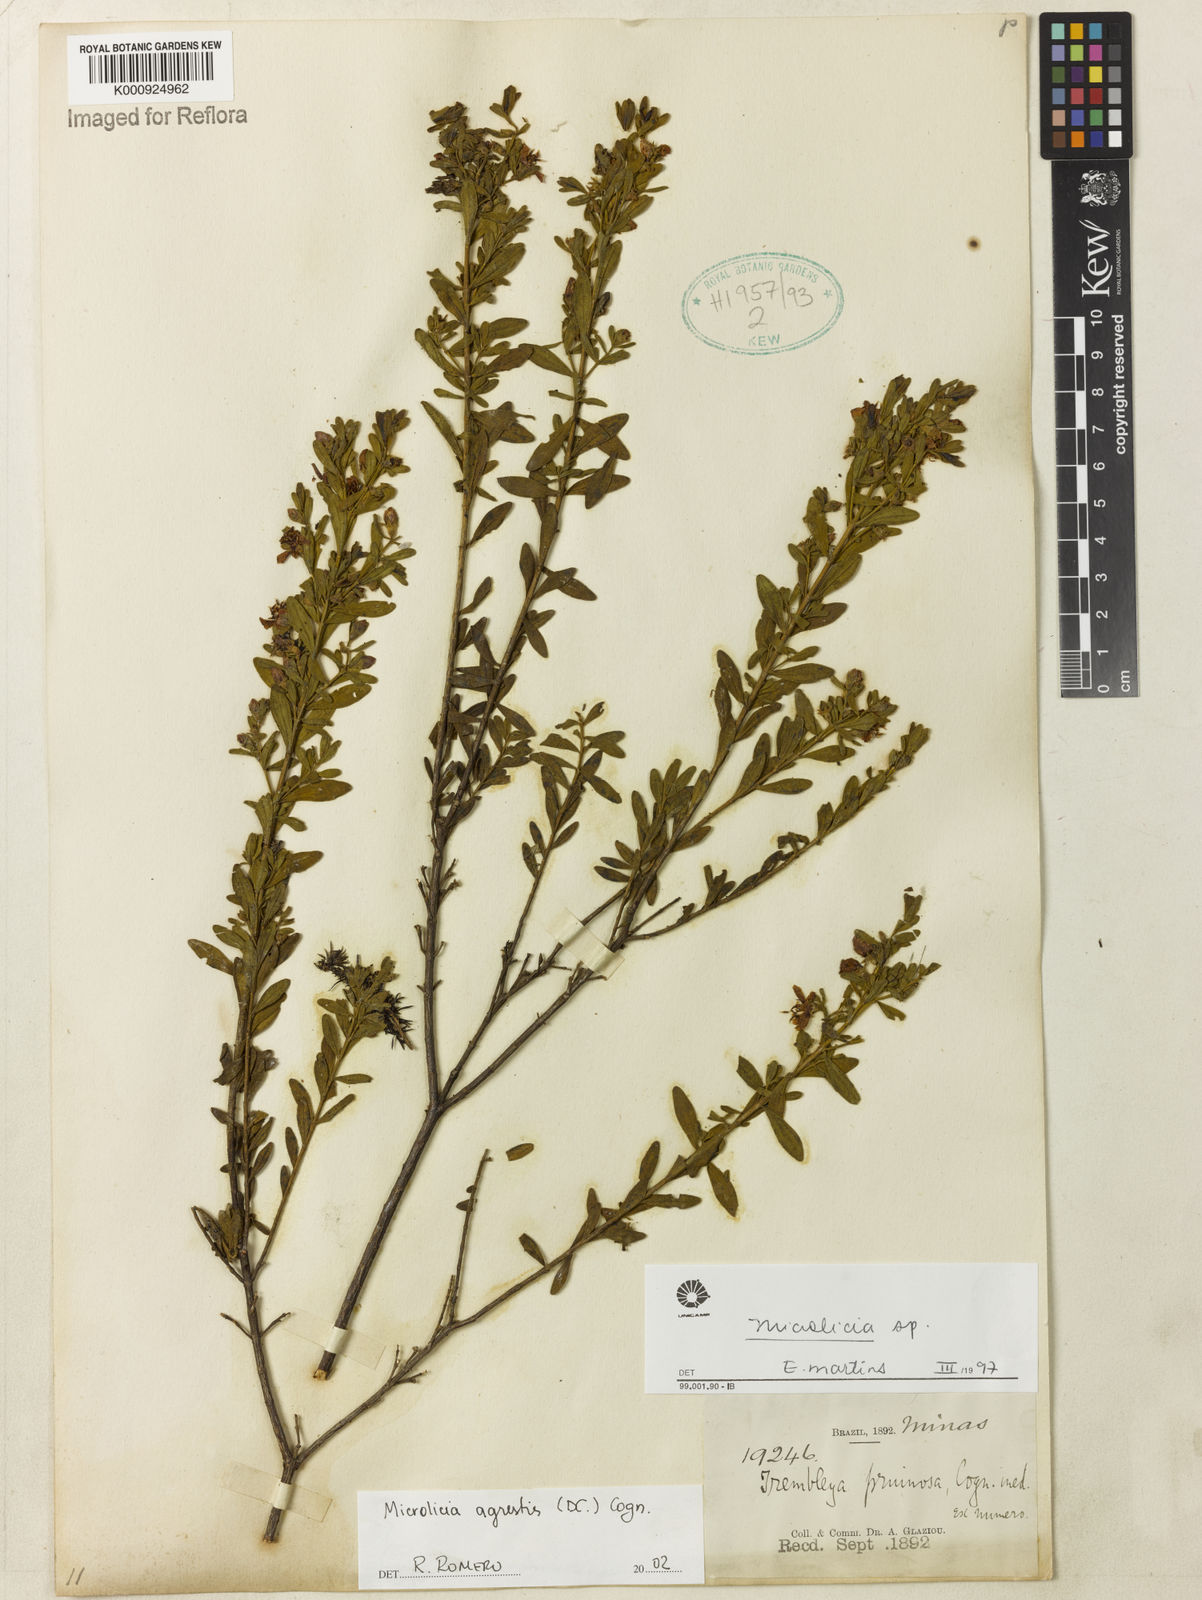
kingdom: Plantae
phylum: Tracheophyta
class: Magnoliopsida
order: Myrtales
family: Melastomataceae
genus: Microlicia
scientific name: Microlicia agrestis
